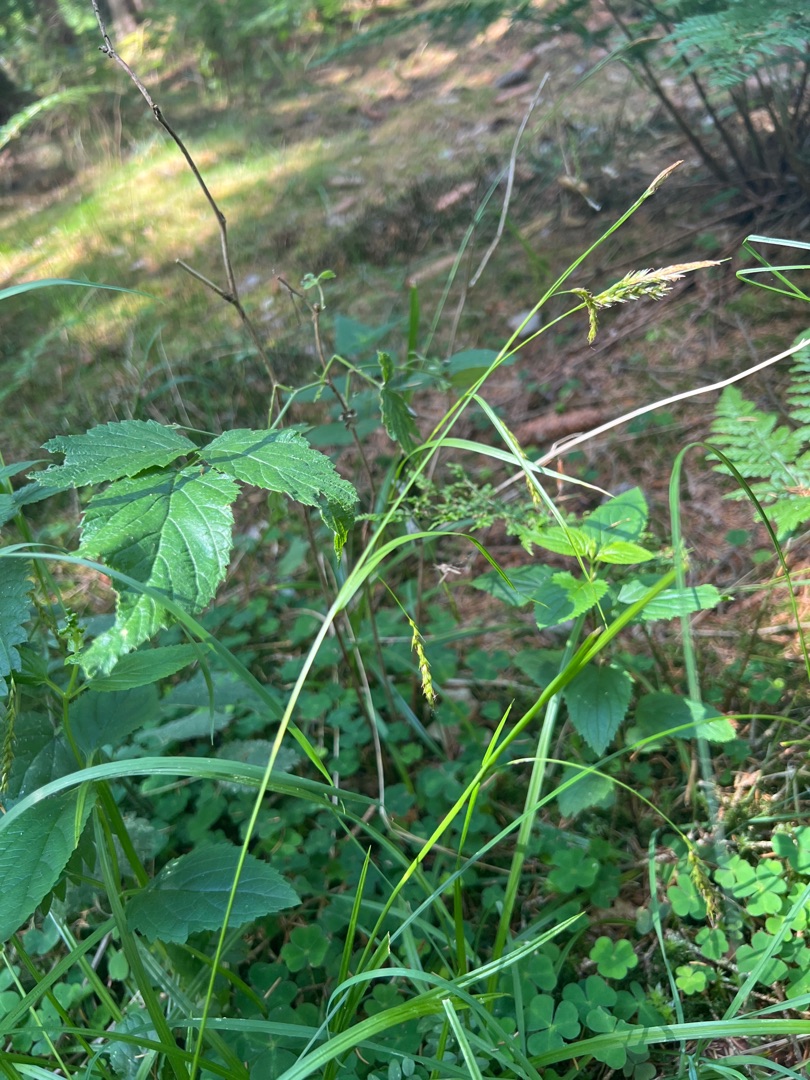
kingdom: Plantae
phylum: Tracheophyta
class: Liliopsida
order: Poales
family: Cyperaceae
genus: Carex
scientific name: Carex sylvatica
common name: Skov-star
